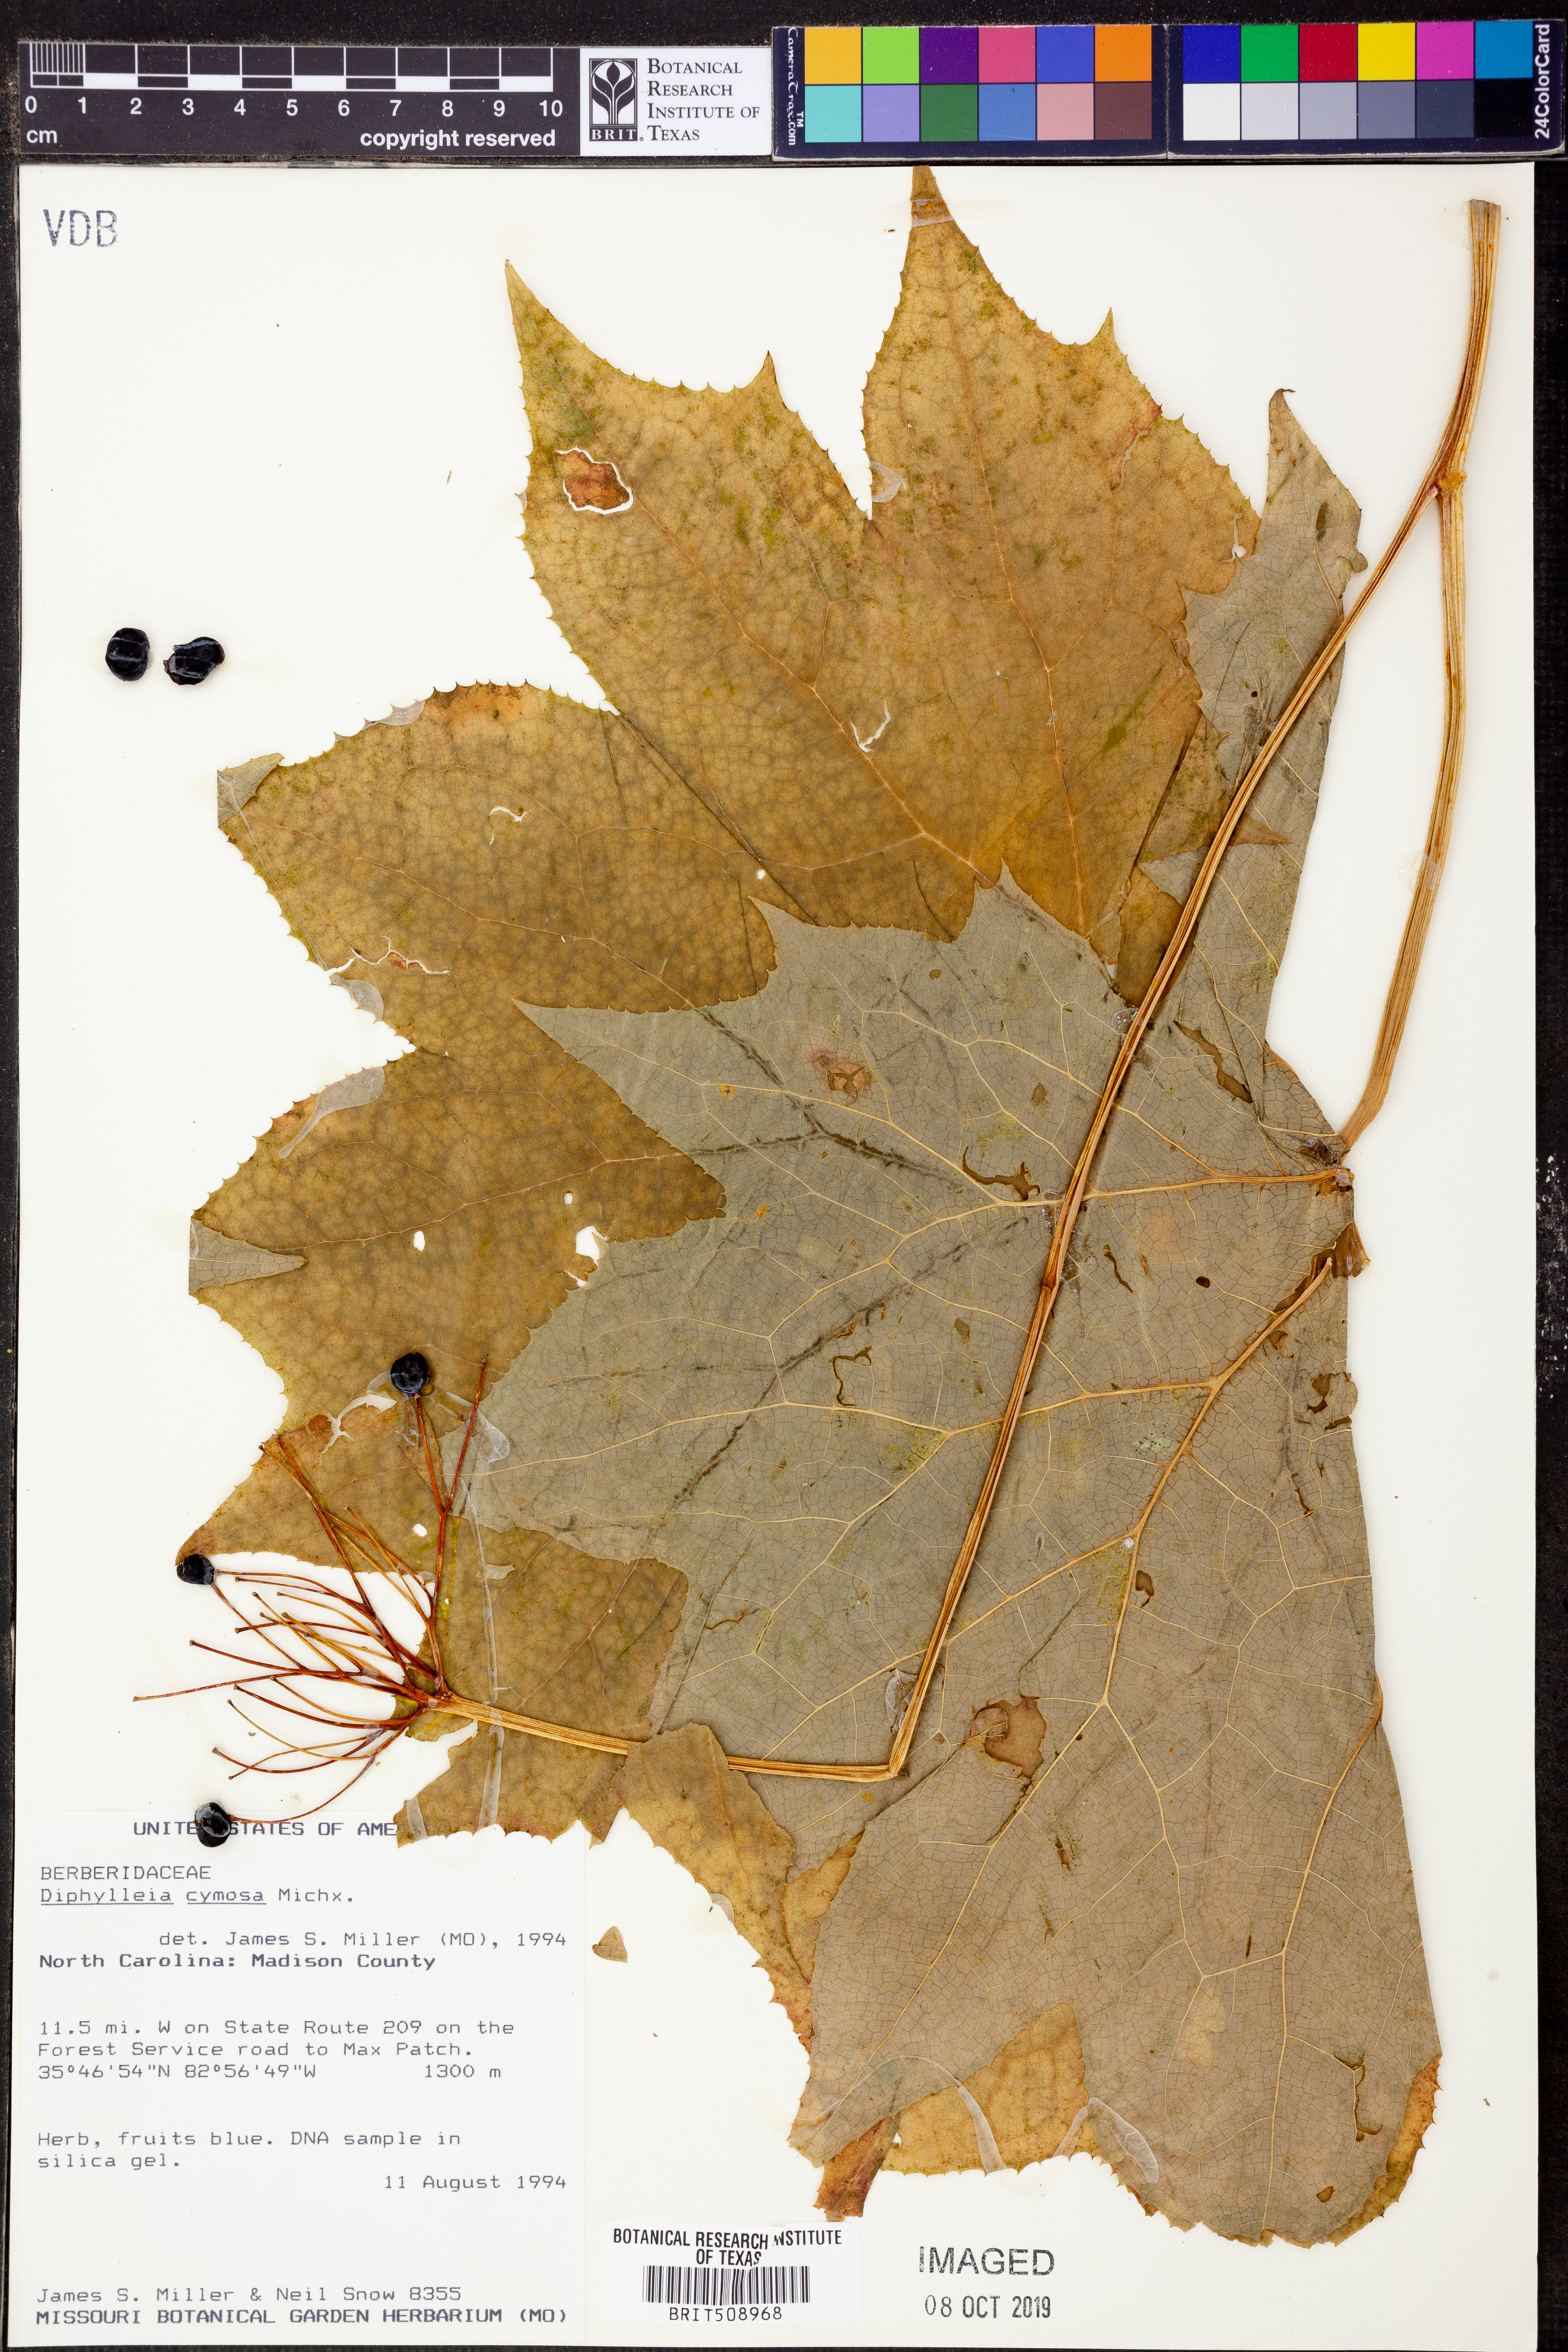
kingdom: Plantae
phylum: Tracheophyta
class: Magnoliopsida
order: Ranunculales
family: Berberidaceae
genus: Diphylleia
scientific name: Diphylleia cymosa
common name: Umbrella-leaf
